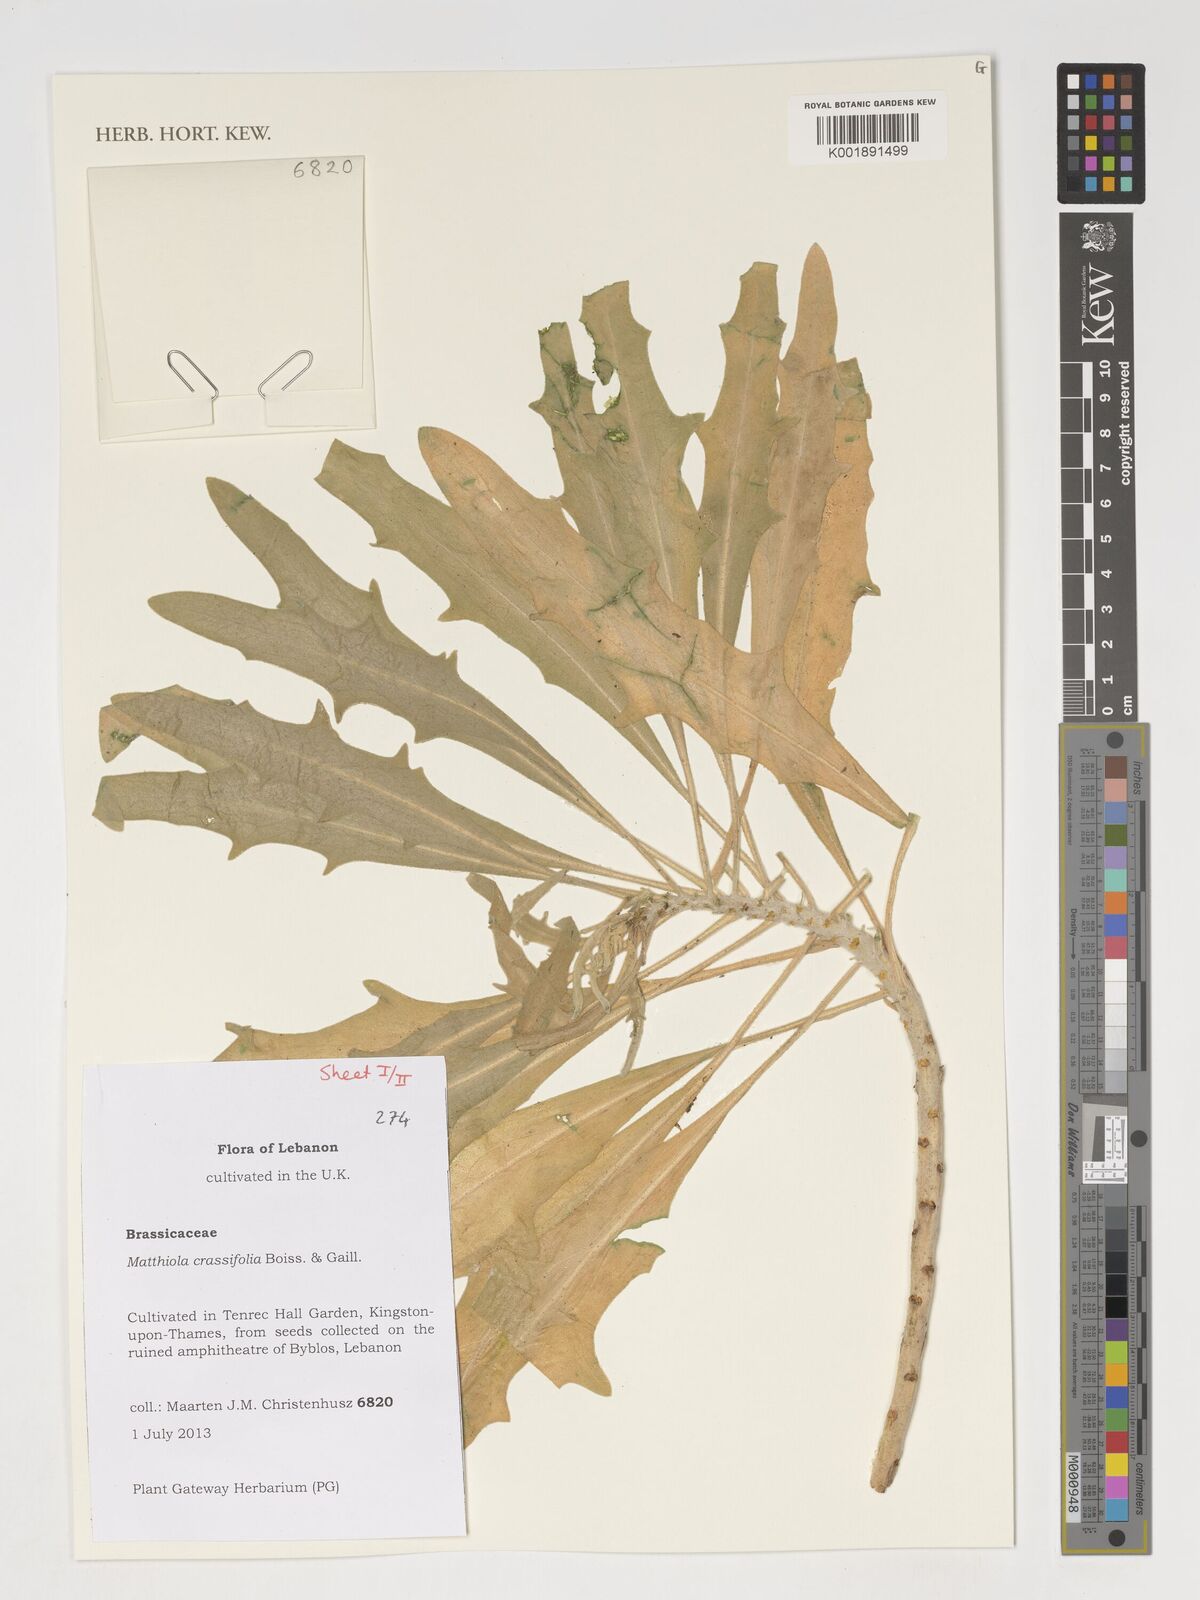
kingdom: Plantae
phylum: Tracheophyta
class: Magnoliopsida
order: Brassicales
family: Brassicaceae
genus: Matthiola
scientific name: Matthiola crassifolia
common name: Thick-leaved stock of beirut
